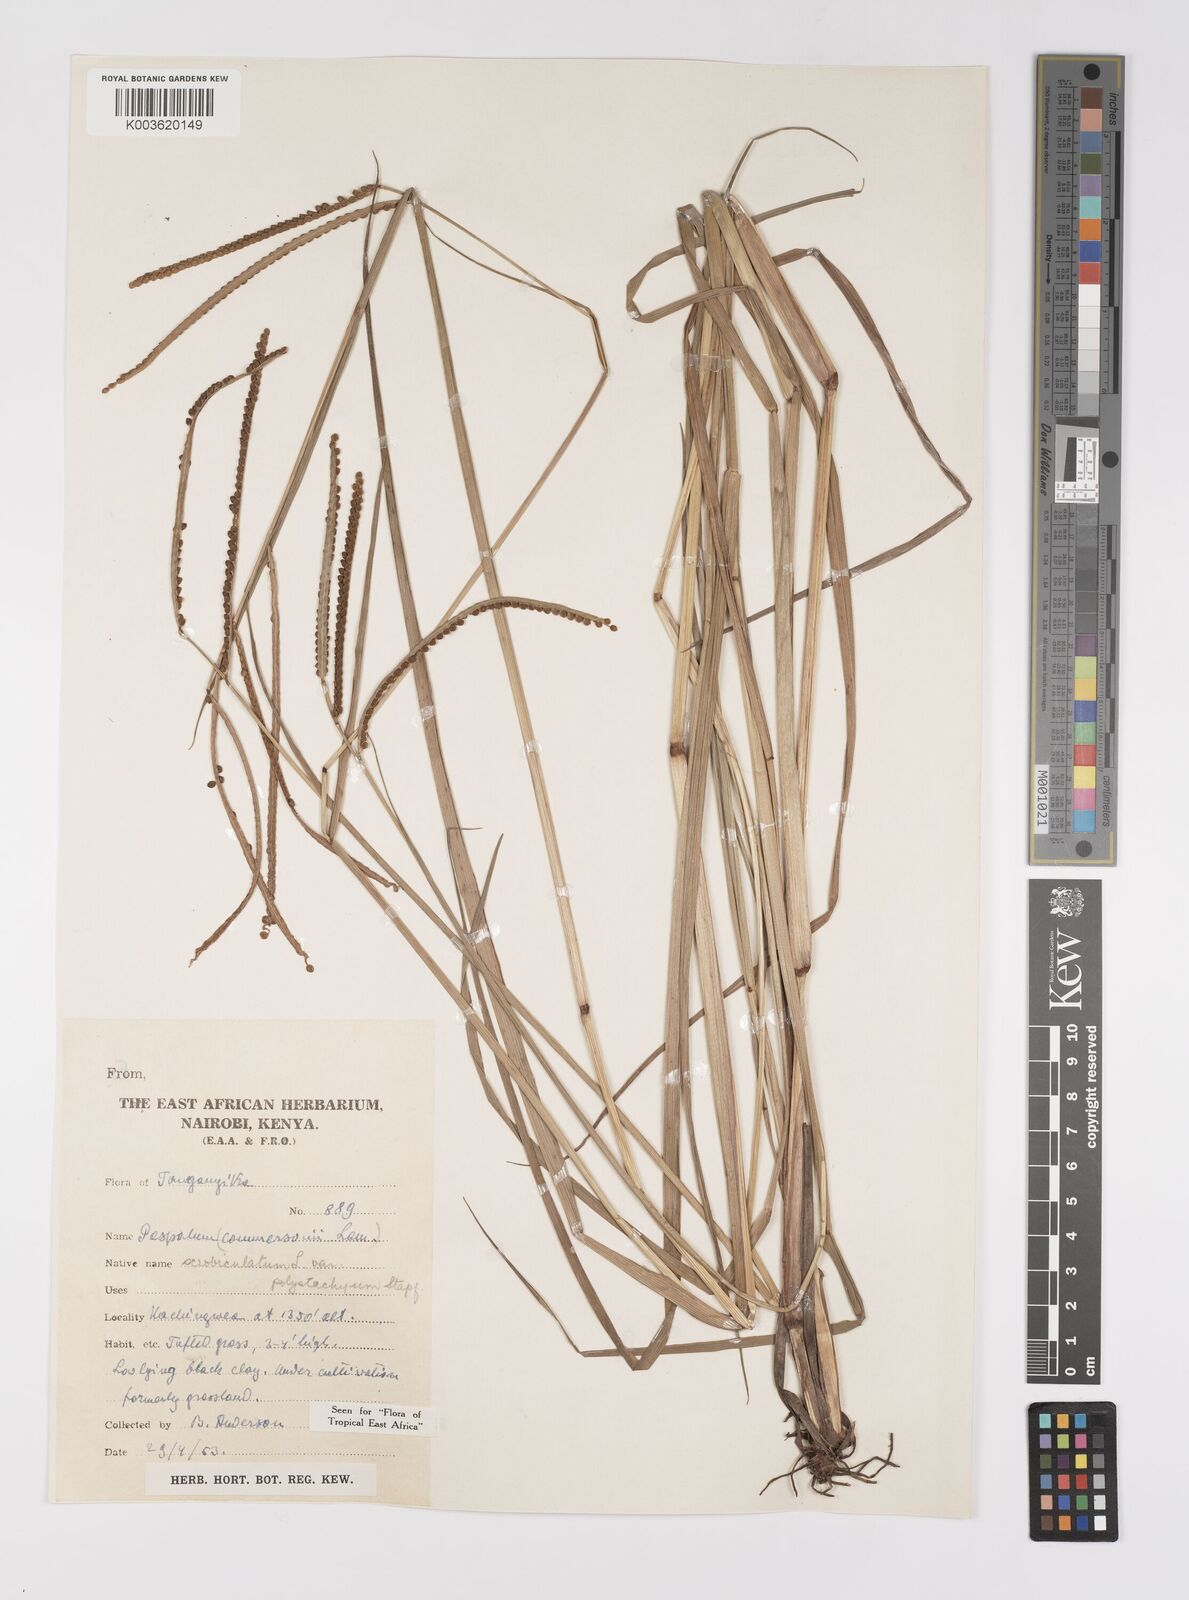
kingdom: Plantae
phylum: Tracheophyta
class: Liliopsida
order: Poales
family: Poaceae
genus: Paspalum
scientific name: Paspalum scrobiculatum
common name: Kodo millet
